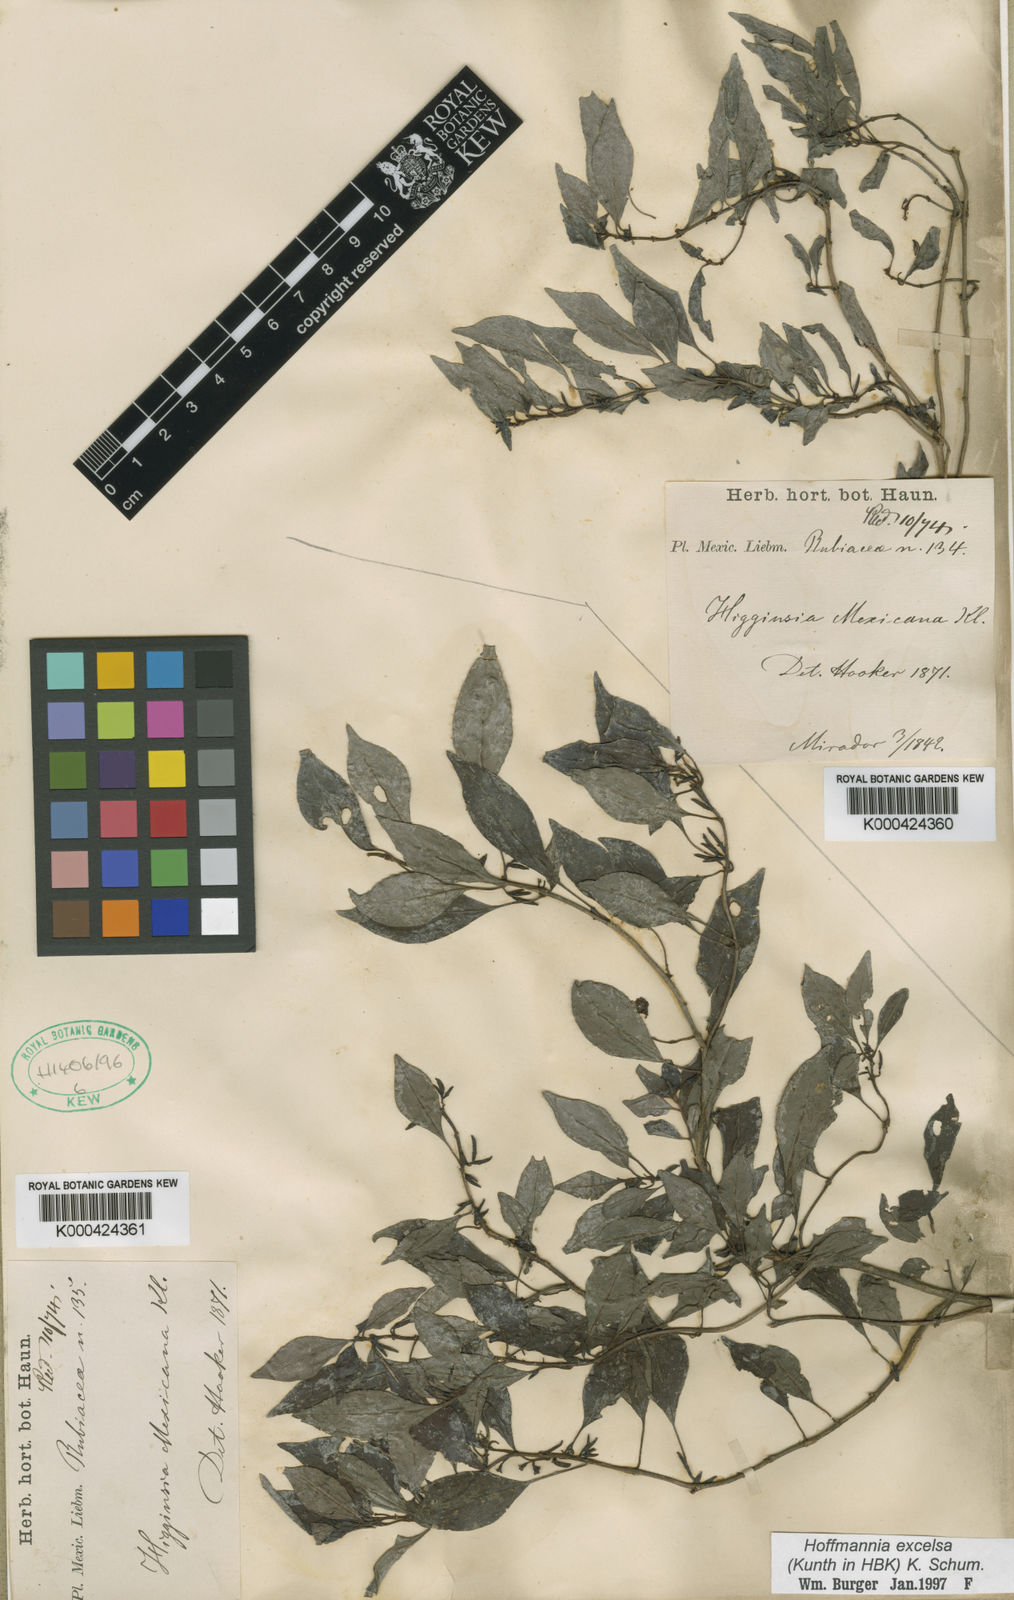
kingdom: Plantae
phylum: Tracheophyta
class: Magnoliopsida
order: Gentianales
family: Rubiaceae
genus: Hoffmannia
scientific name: Hoffmannia excelsa
